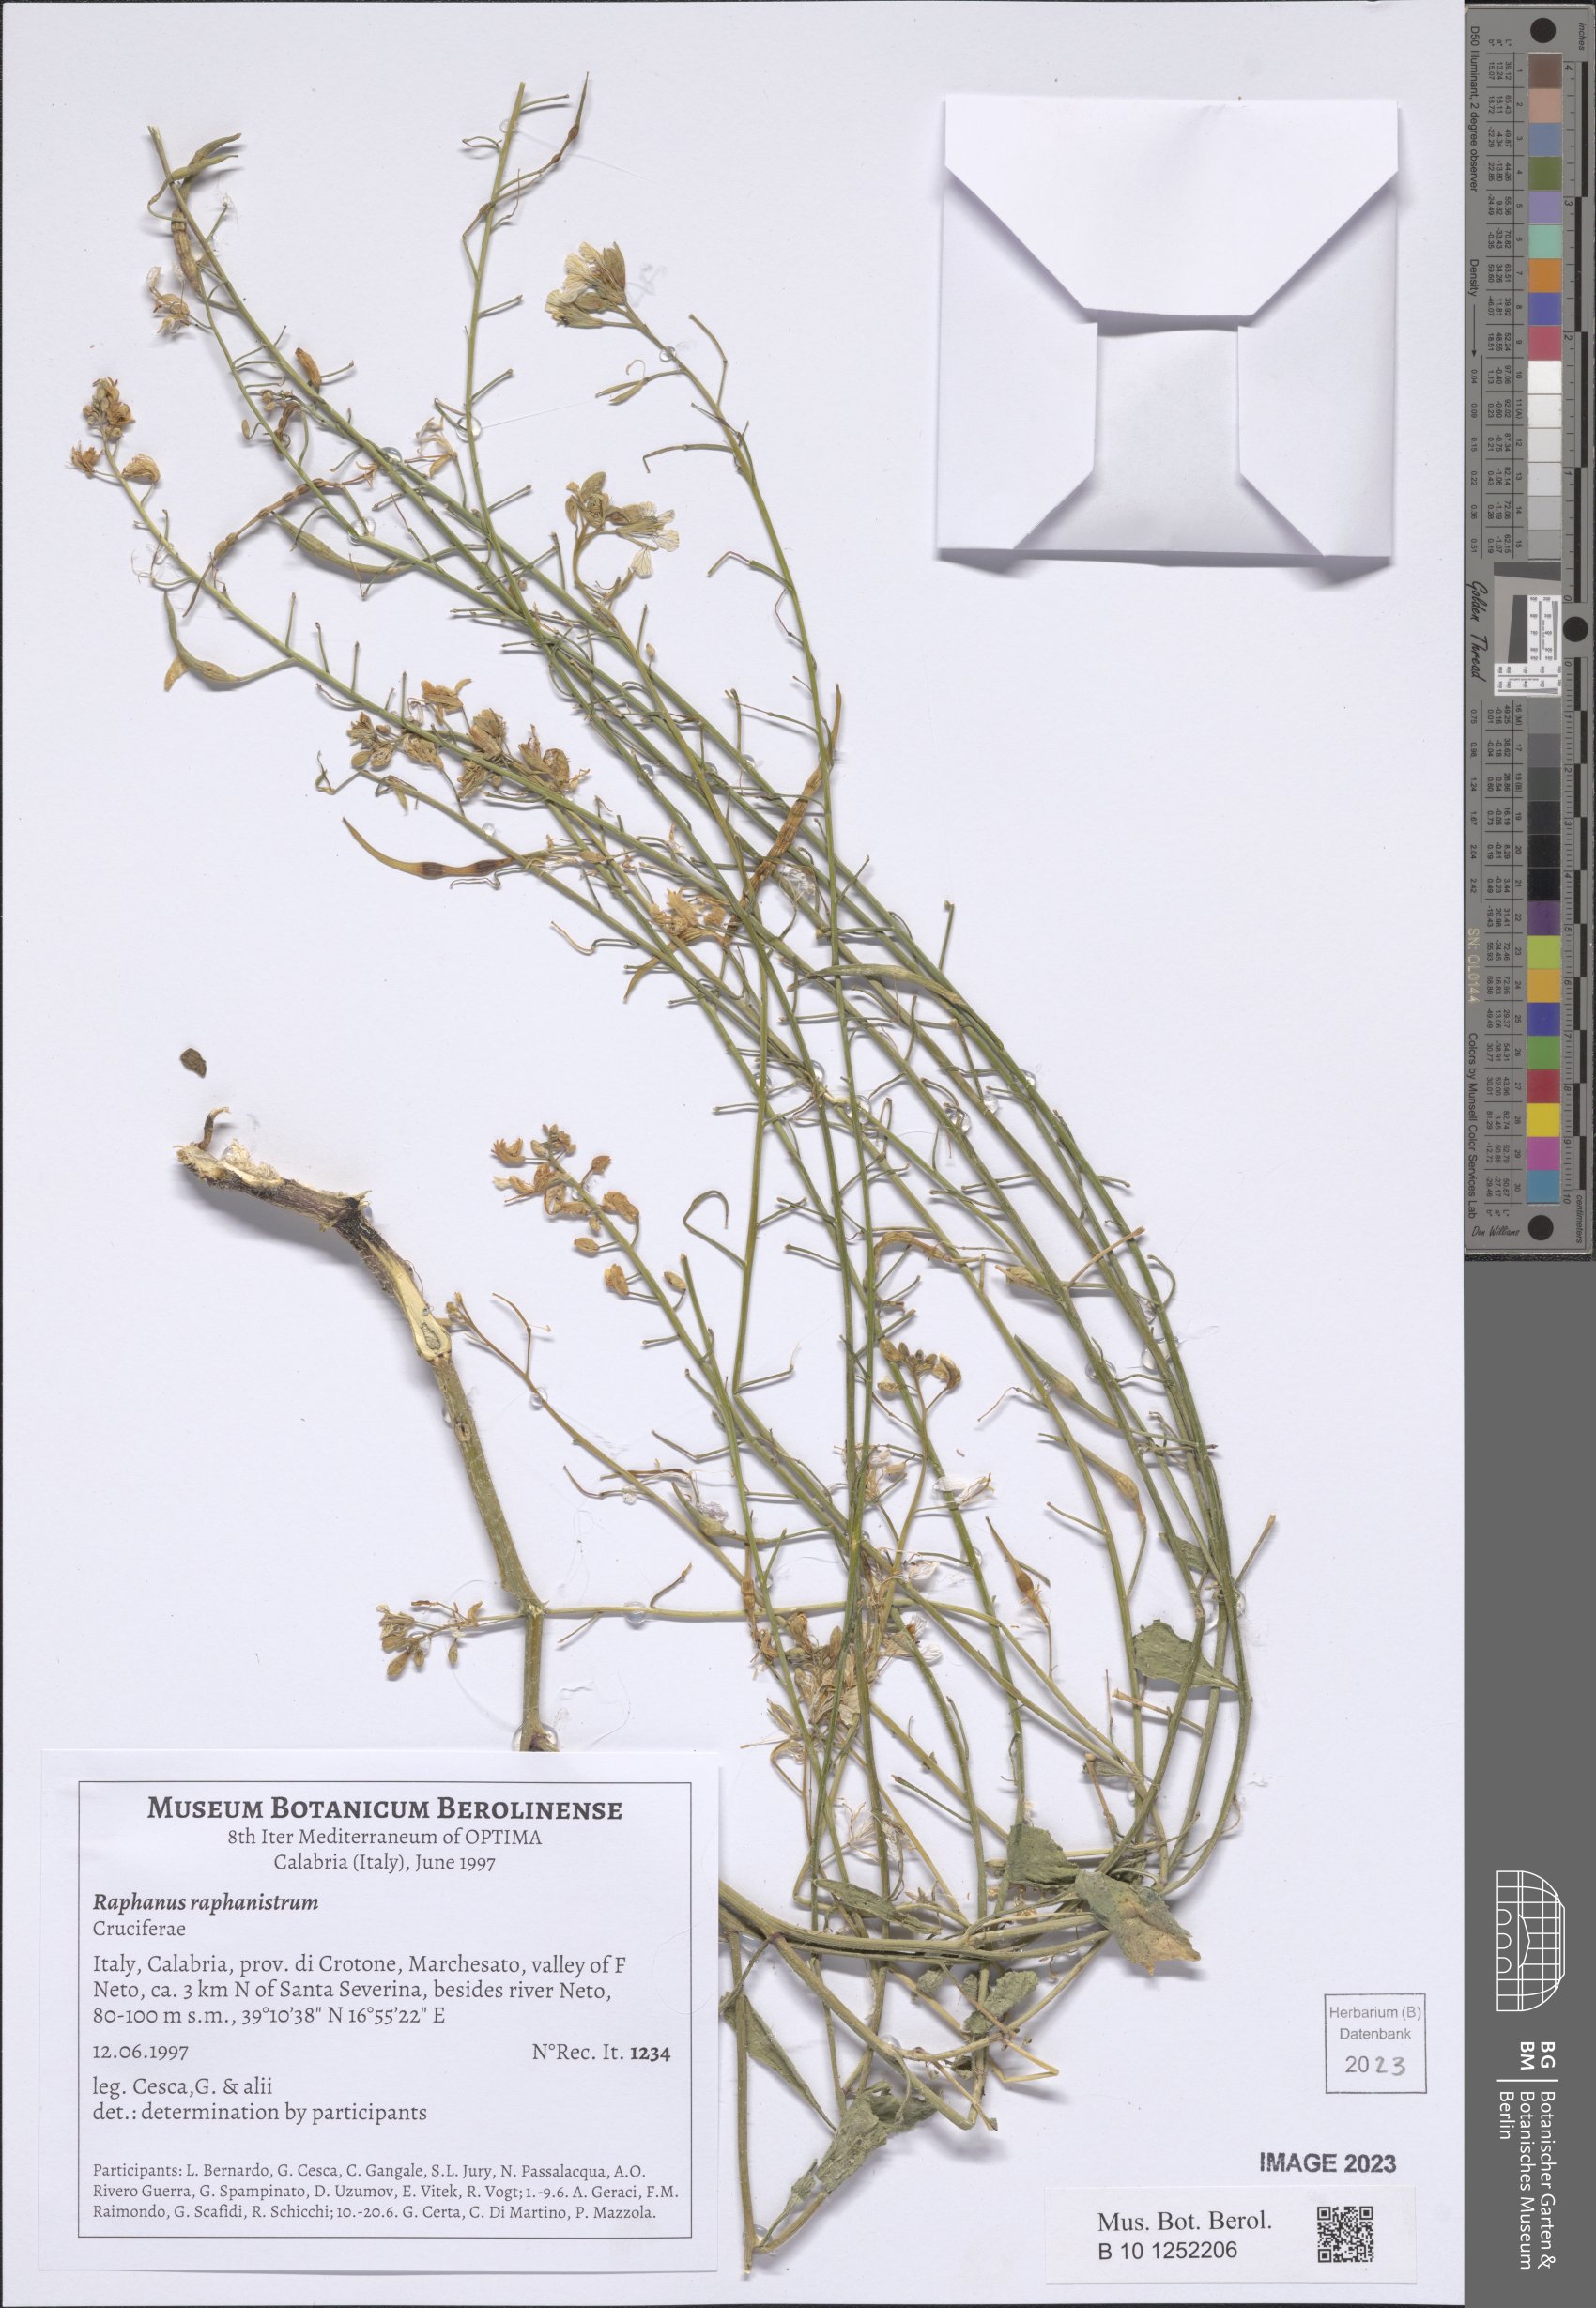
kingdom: Plantae
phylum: Tracheophyta
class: Magnoliopsida
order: Brassicales
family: Brassicaceae
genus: Raphanus
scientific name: Raphanus raphanistrum
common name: Wild radish
